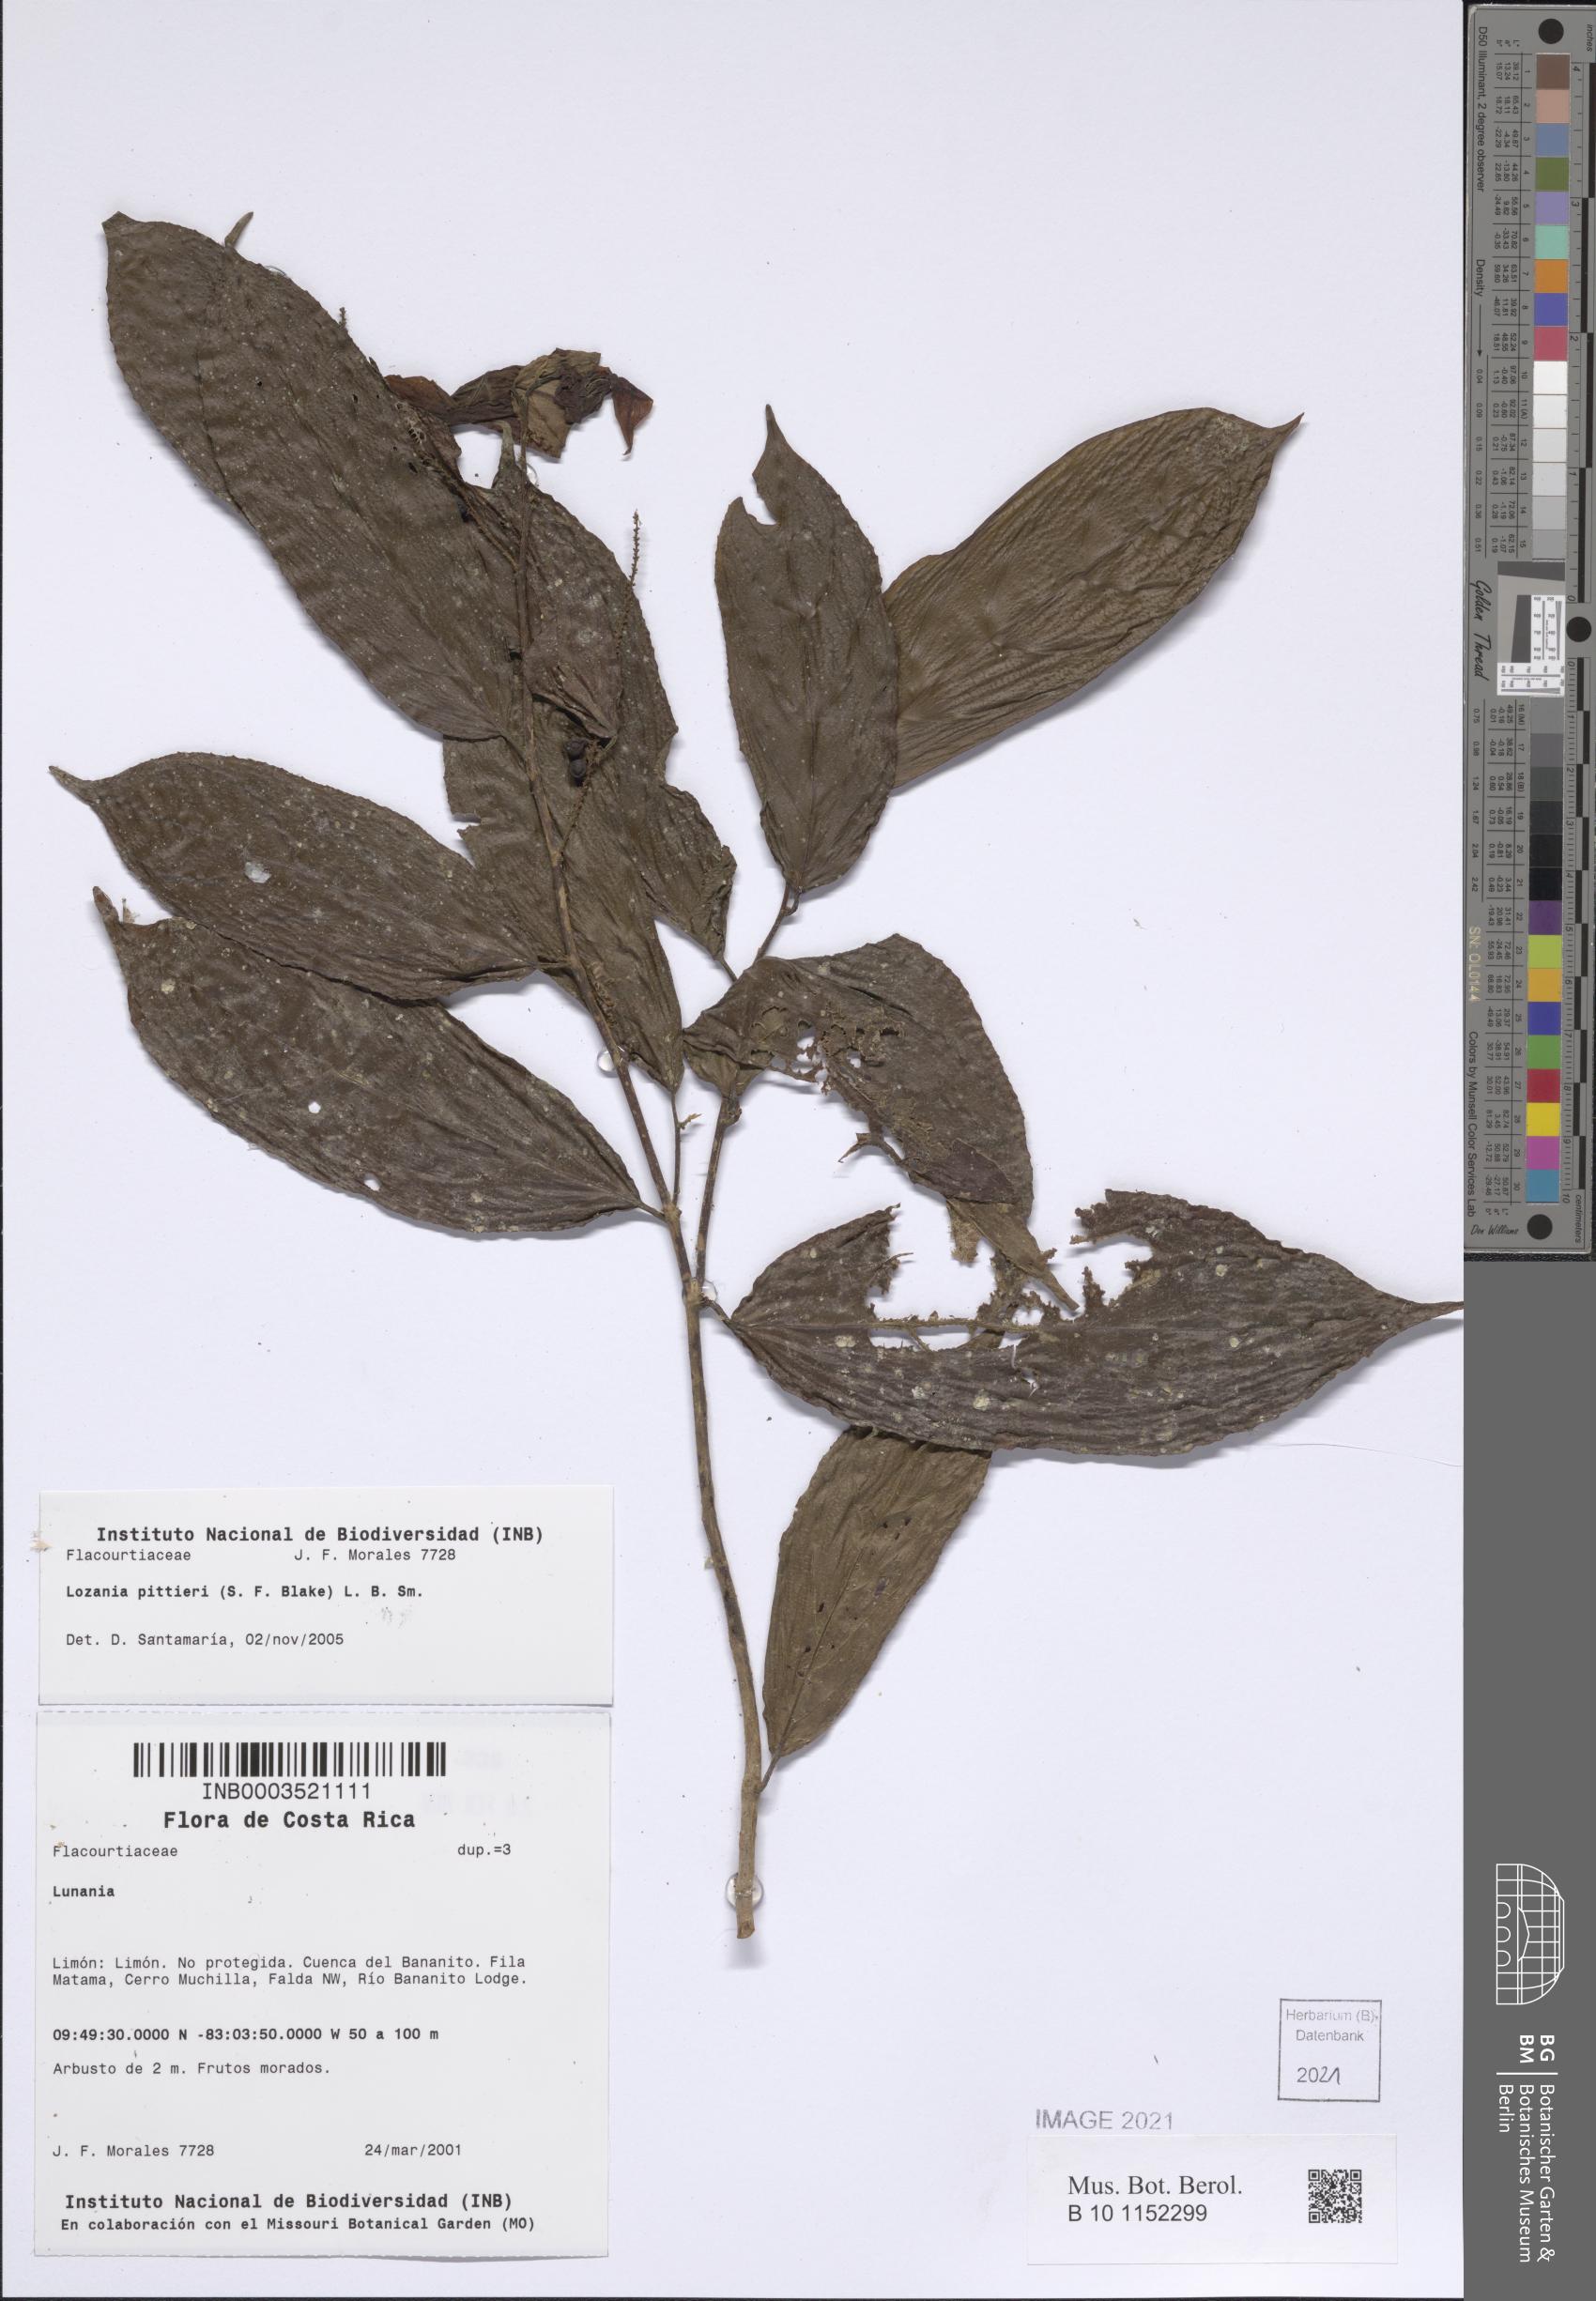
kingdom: Plantae
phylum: Tracheophyta
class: Magnoliopsida
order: Malpighiales
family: Lacistemataceae
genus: Lozania
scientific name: Lozania pittieri
